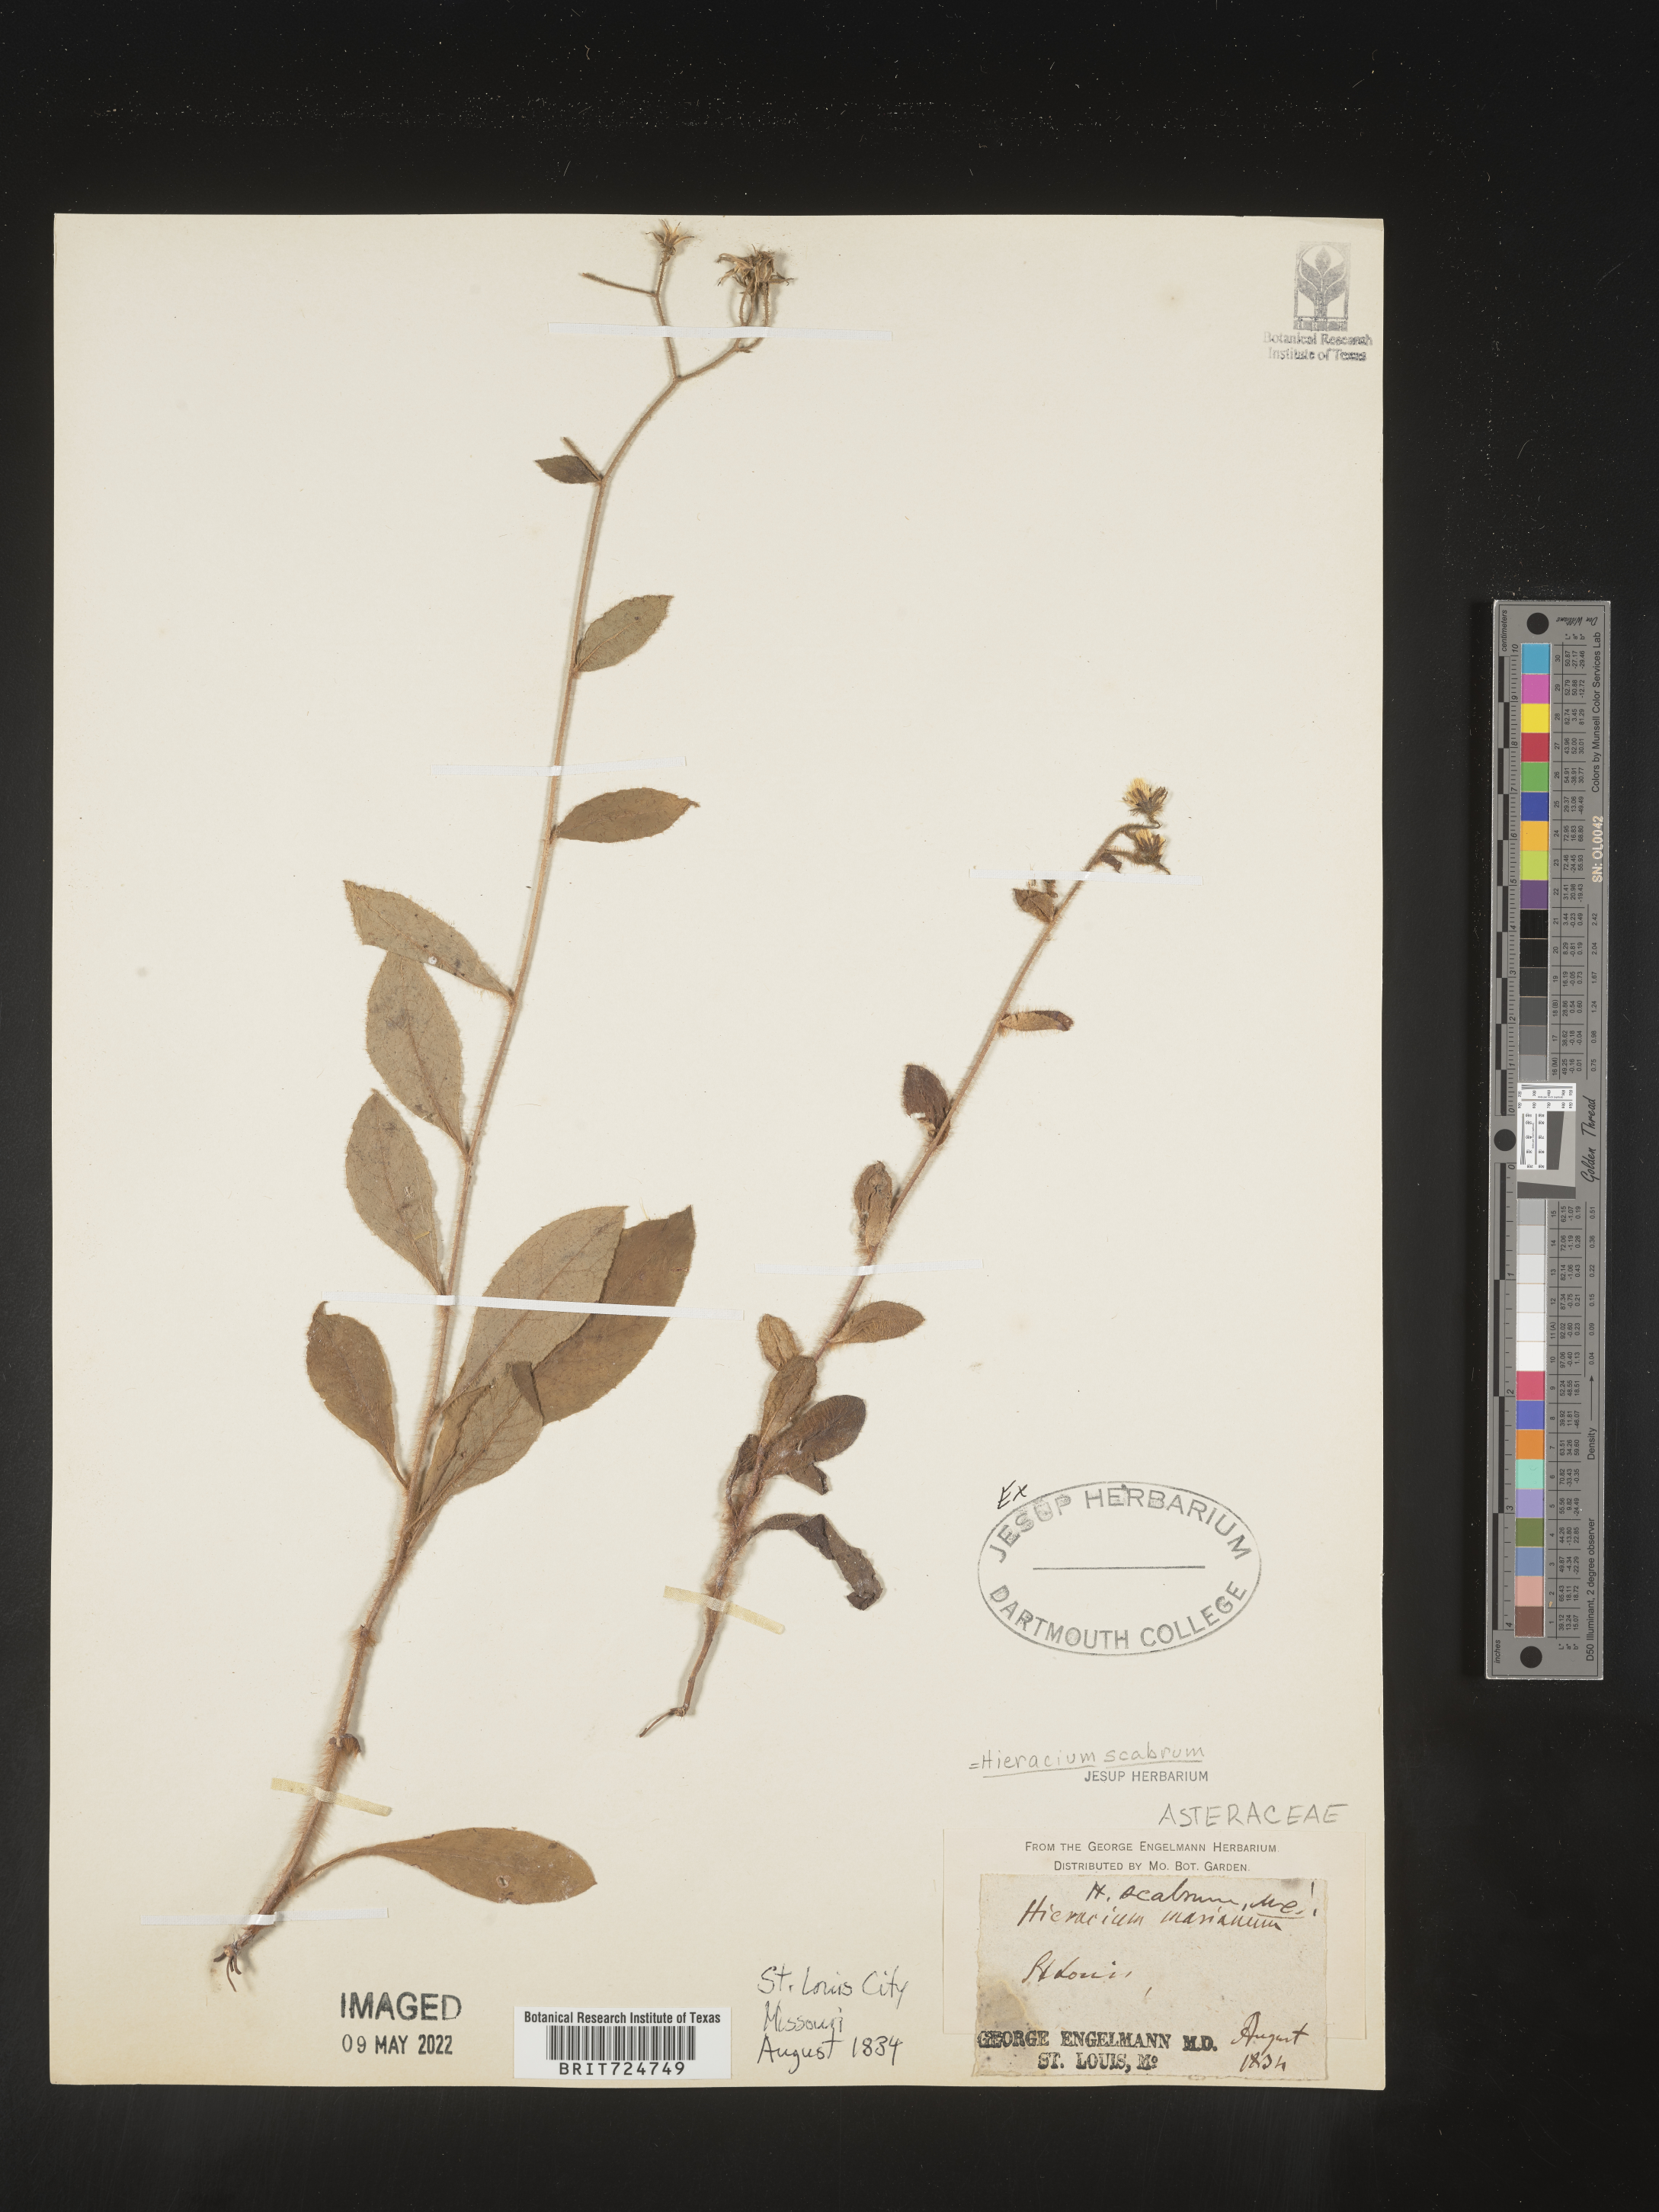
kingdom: Plantae
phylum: Tracheophyta
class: Magnoliopsida
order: Asterales
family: Asteraceae
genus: Hieracium
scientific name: Hieracium scabrum
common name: Rough hawkweed
